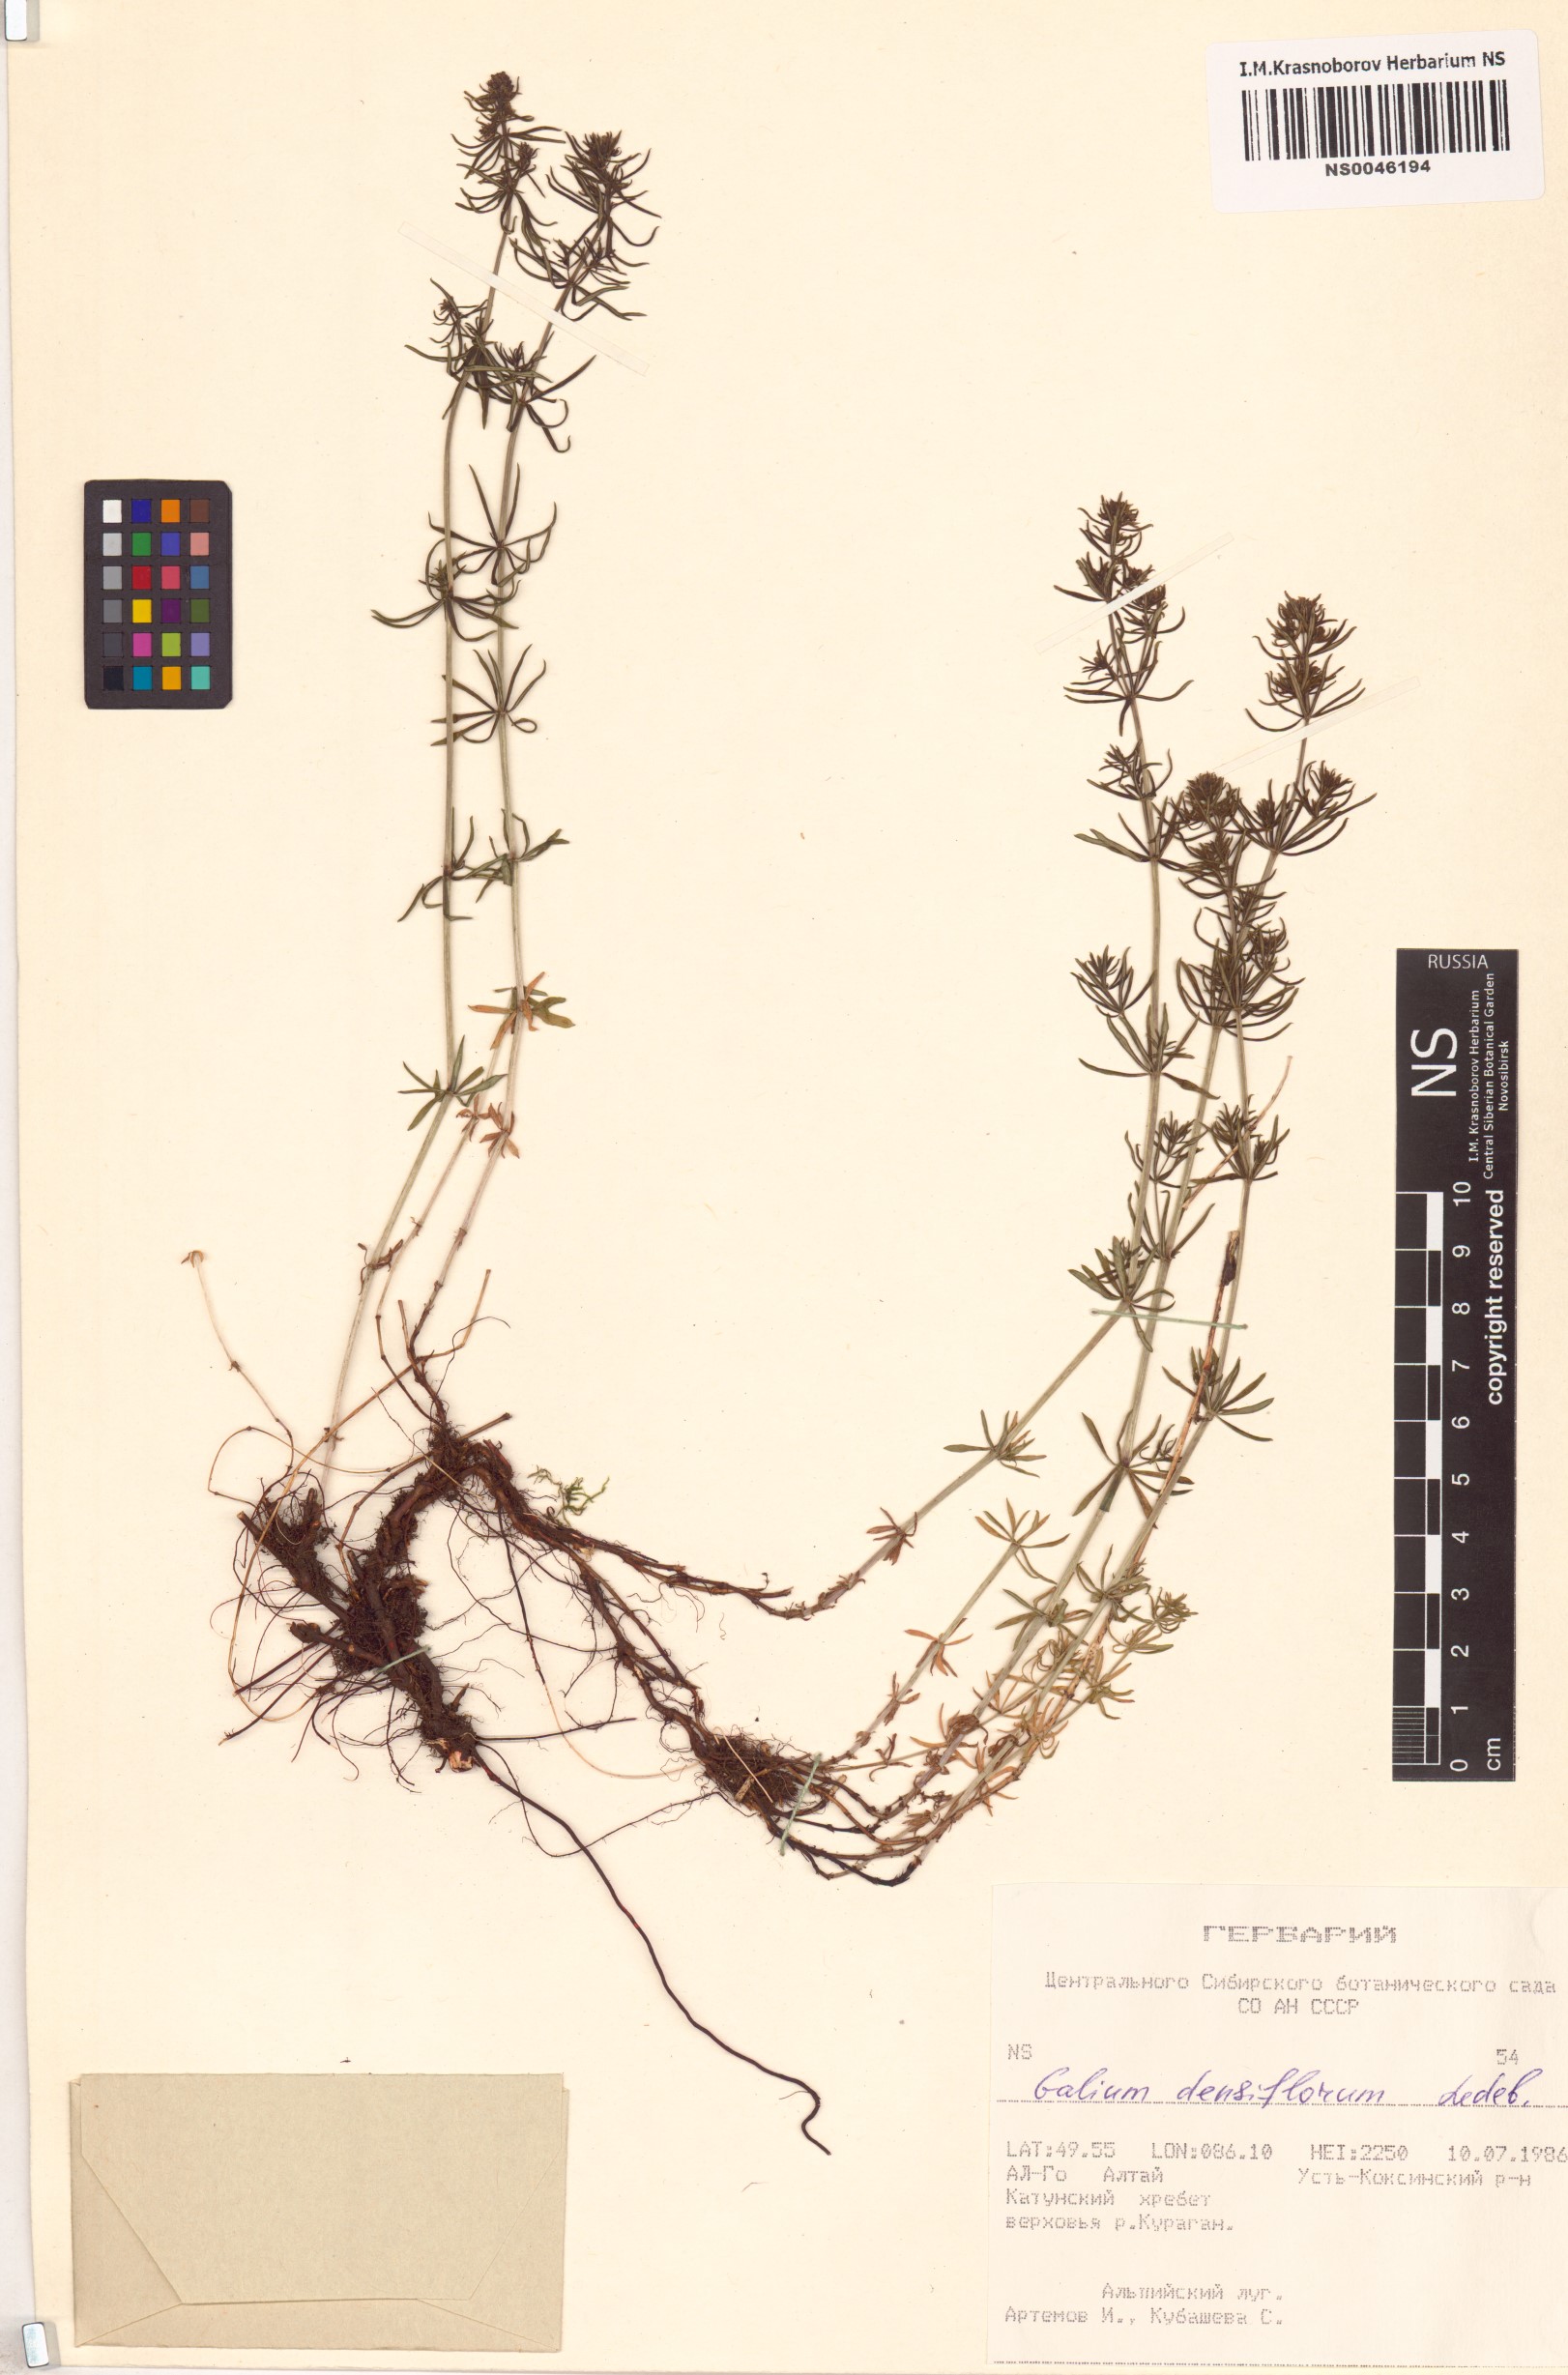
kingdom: Plantae
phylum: Tracheophyta
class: Magnoliopsida
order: Gentianales
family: Rubiaceae
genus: Galium
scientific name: Galium densiflorum
